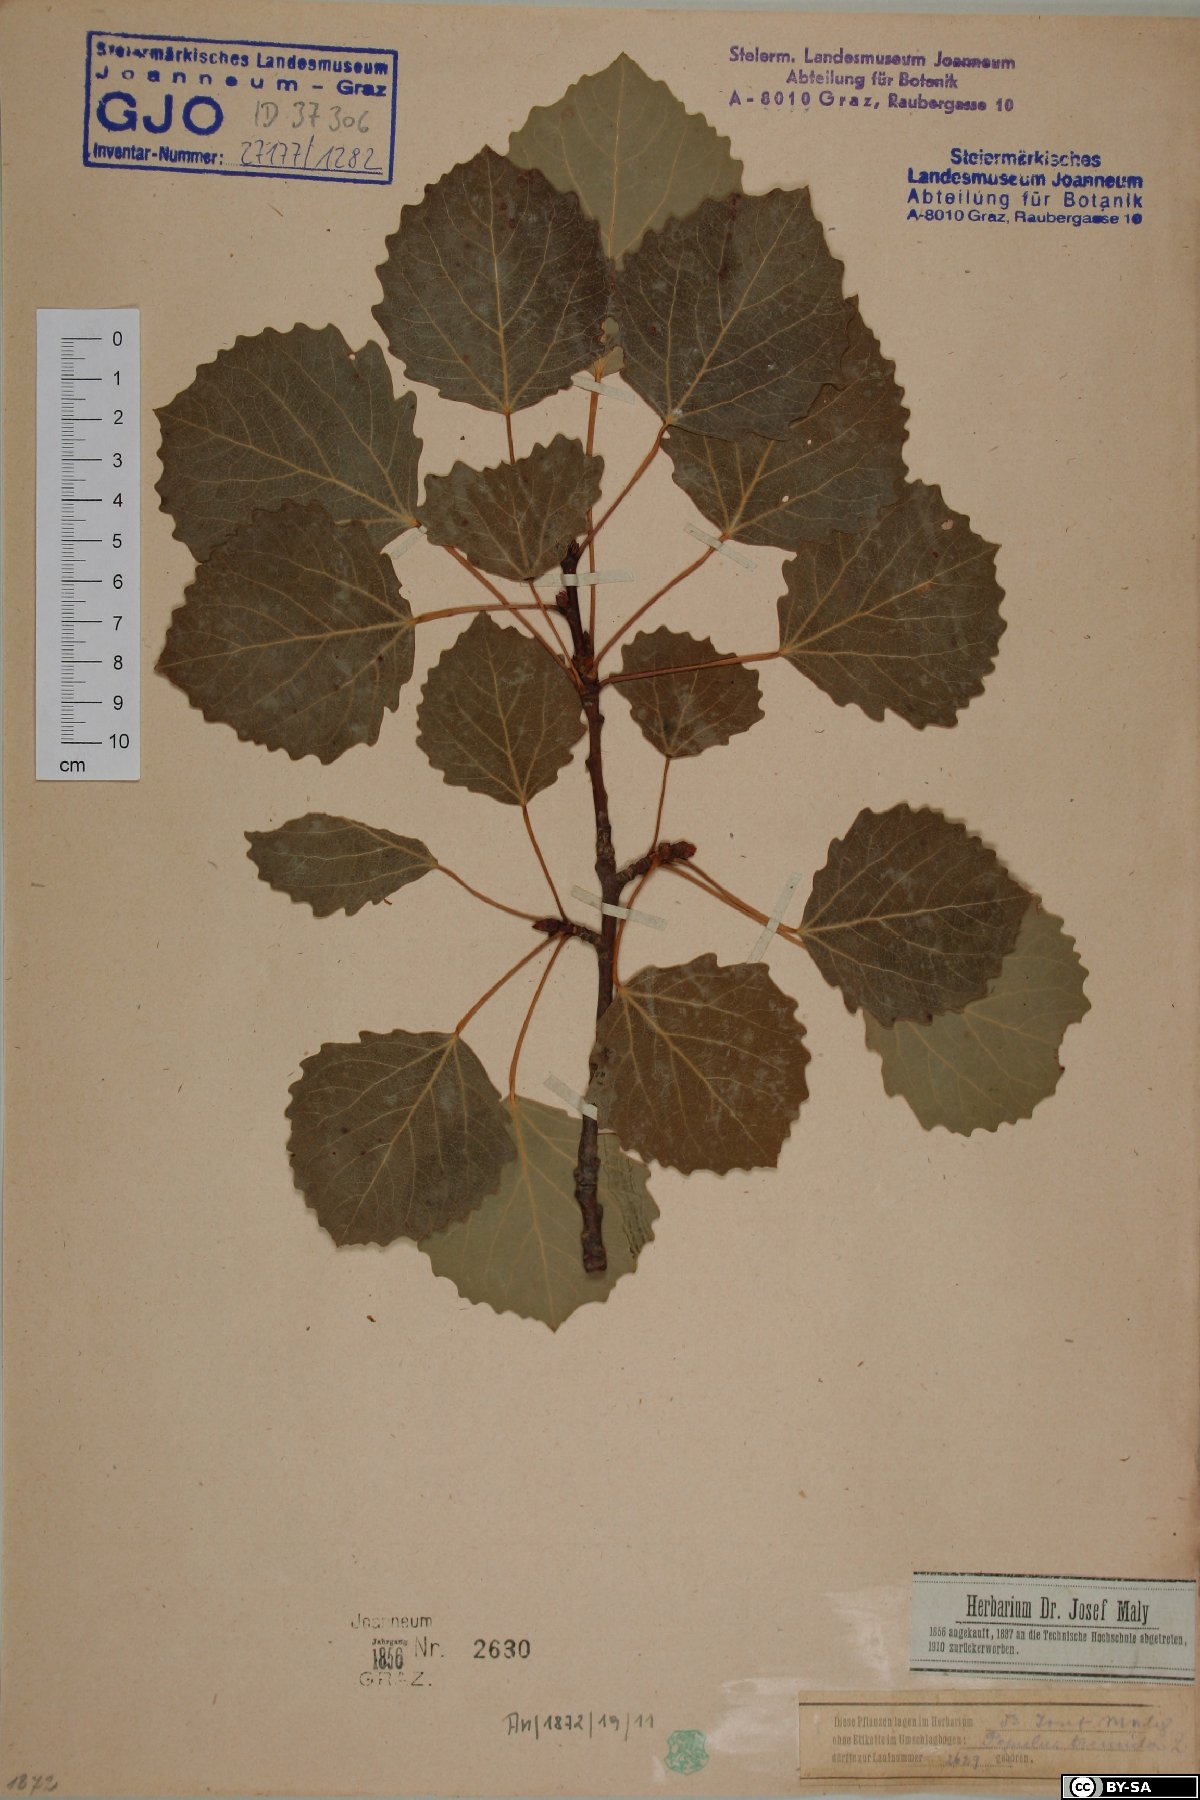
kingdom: Plantae
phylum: Tracheophyta
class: Magnoliopsida
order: Malpighiales
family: Salicaceae
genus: Populus
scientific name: Populus tremula
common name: European aspen
